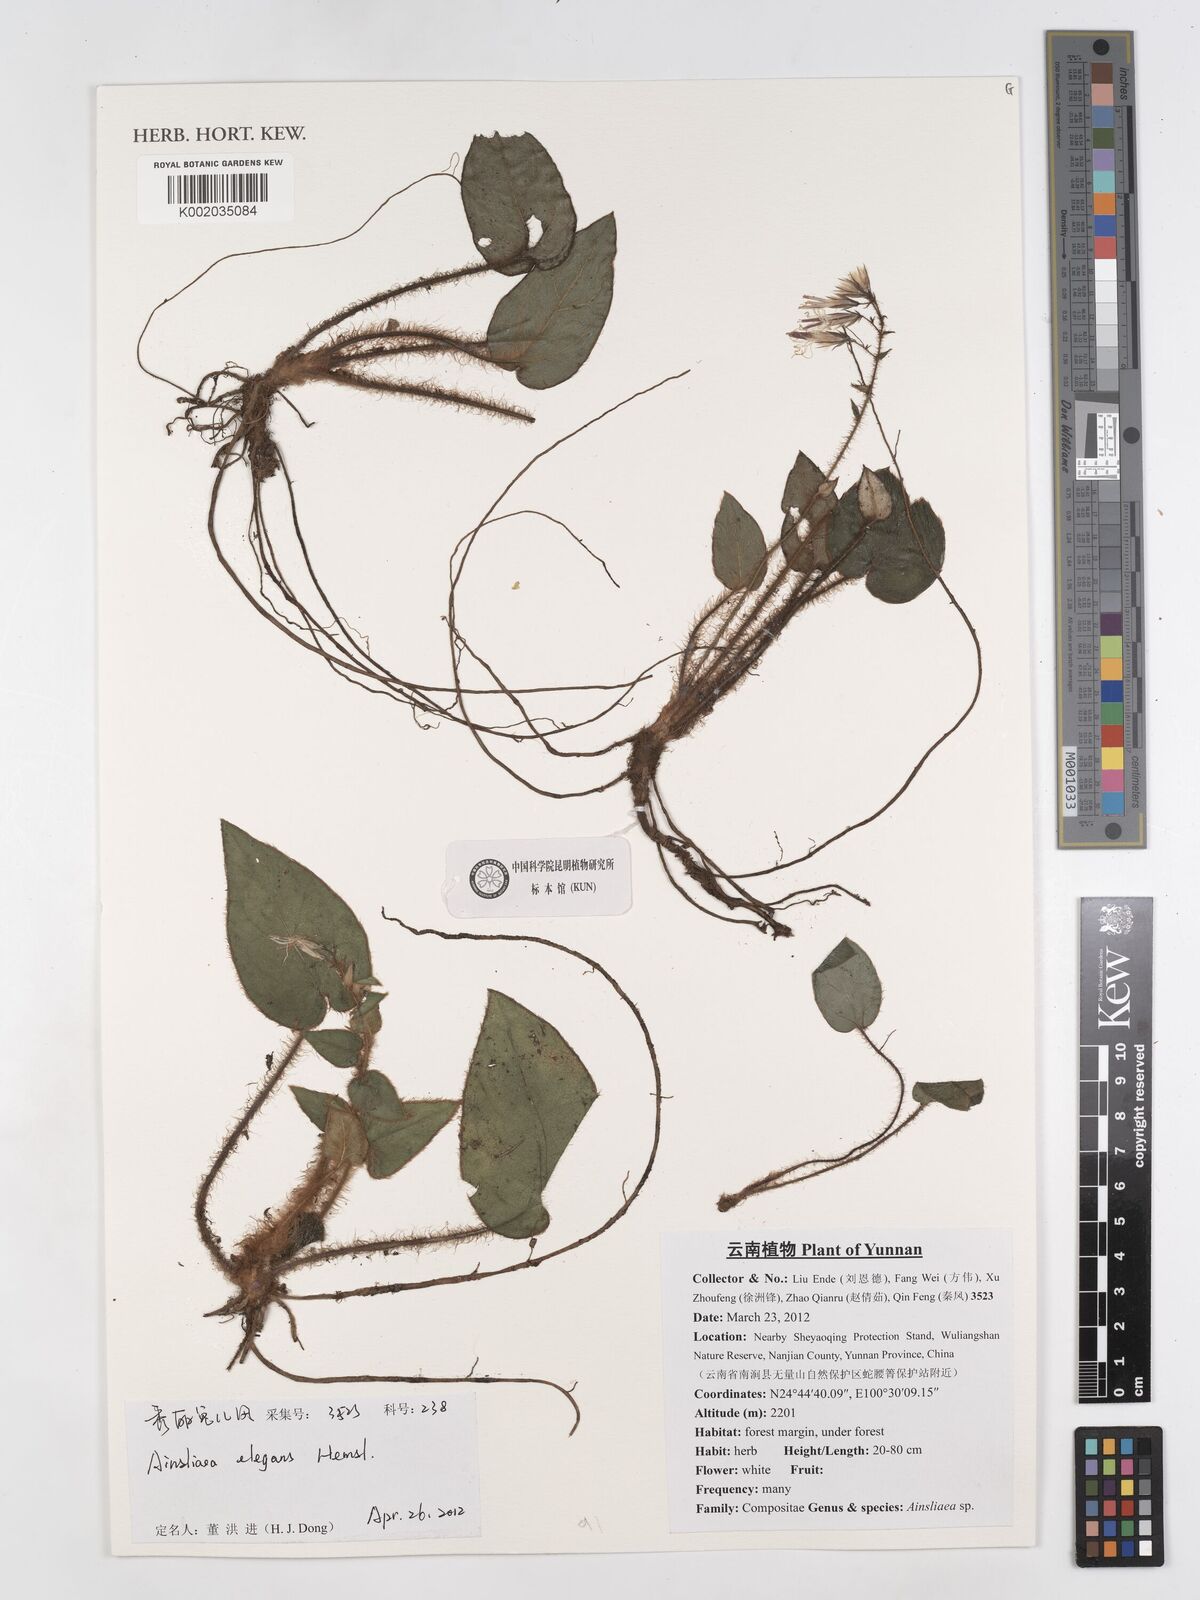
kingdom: Plantae
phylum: Tracheophyta
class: Magnoliopsida
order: Asterales
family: Asteraceae
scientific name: Asteraceae
